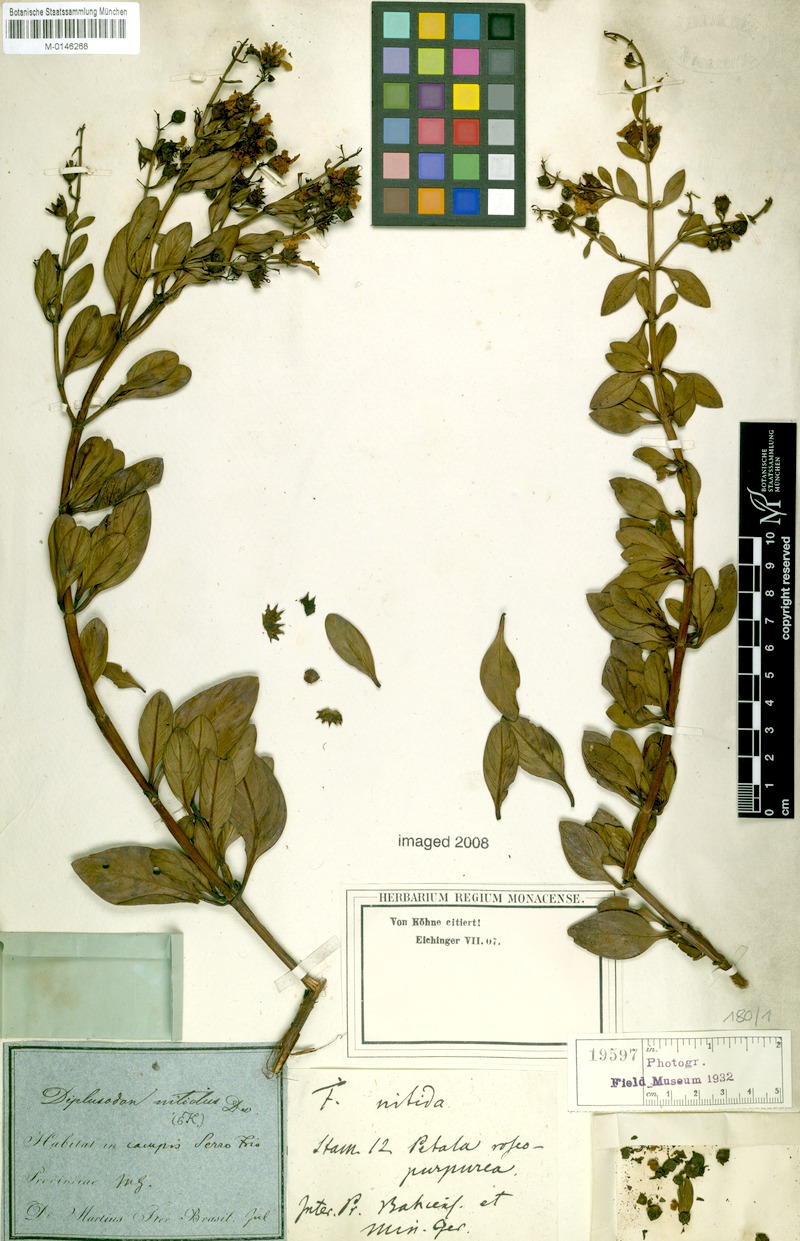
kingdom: Plantae
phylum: Tracheophyta
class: Magnoliopsida
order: Myrtales
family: Lythraceae
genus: Diplusodon
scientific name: Diplusodon nitidus
